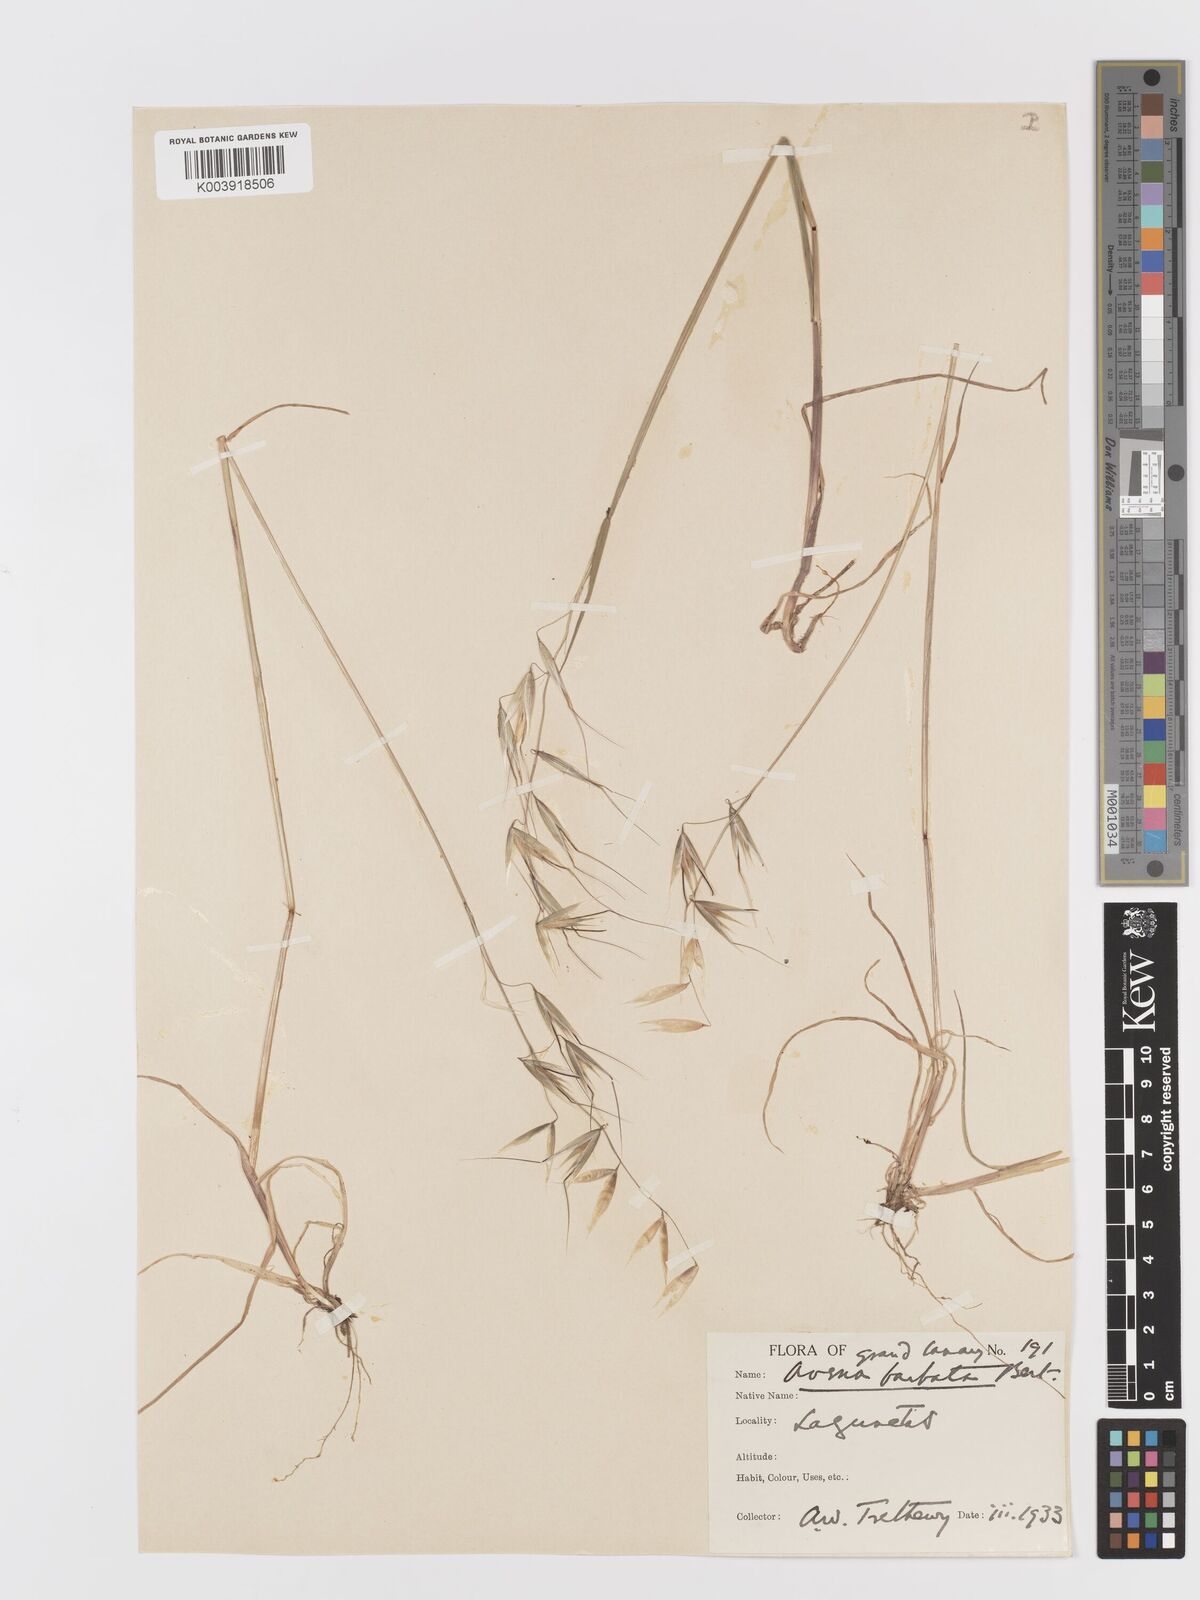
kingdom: Plantae
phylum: Tracheophyta
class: Liliopsida
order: Poales
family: Poaceae
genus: Avena
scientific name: Avena
